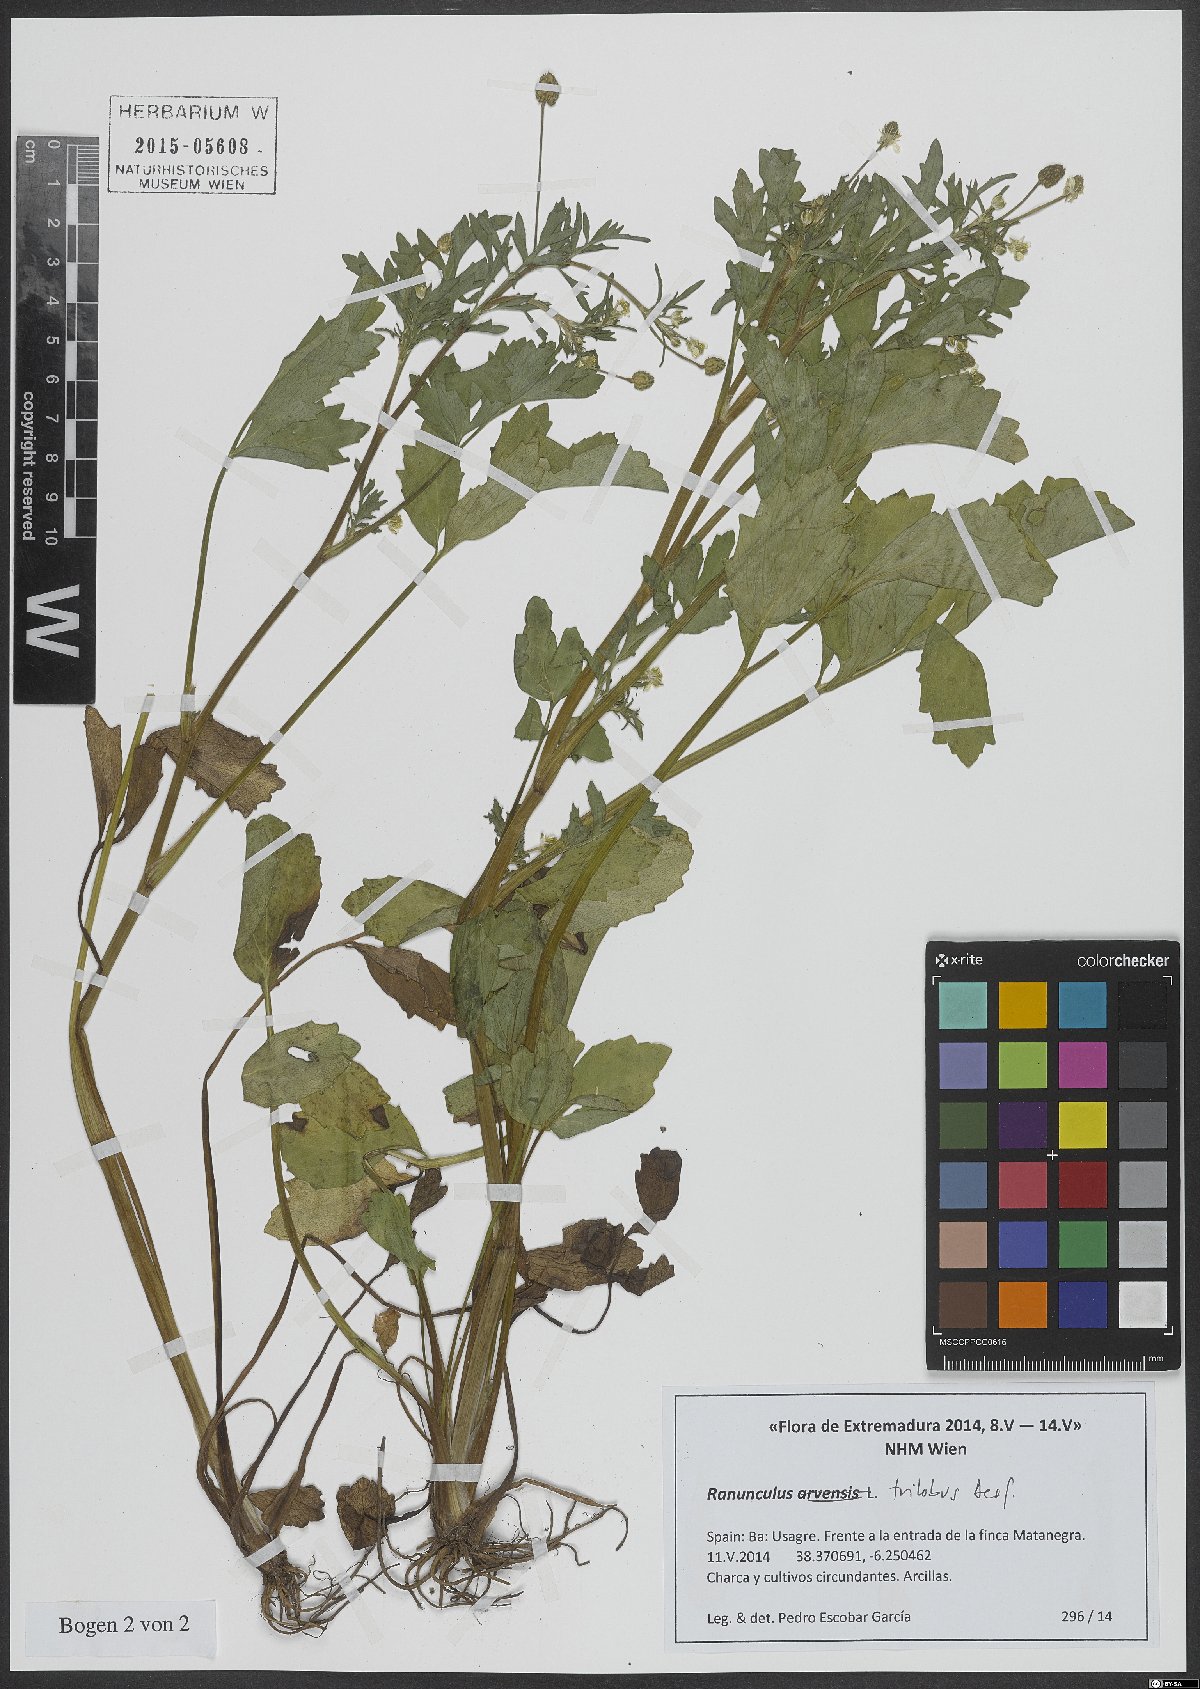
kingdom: Plantae
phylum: Tracheophyta
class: Magnoliopsida
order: Ranunculales
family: Ranunculaceae
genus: Ranunculus
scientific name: Ranunculus trilobus
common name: Threelobe buttercup
